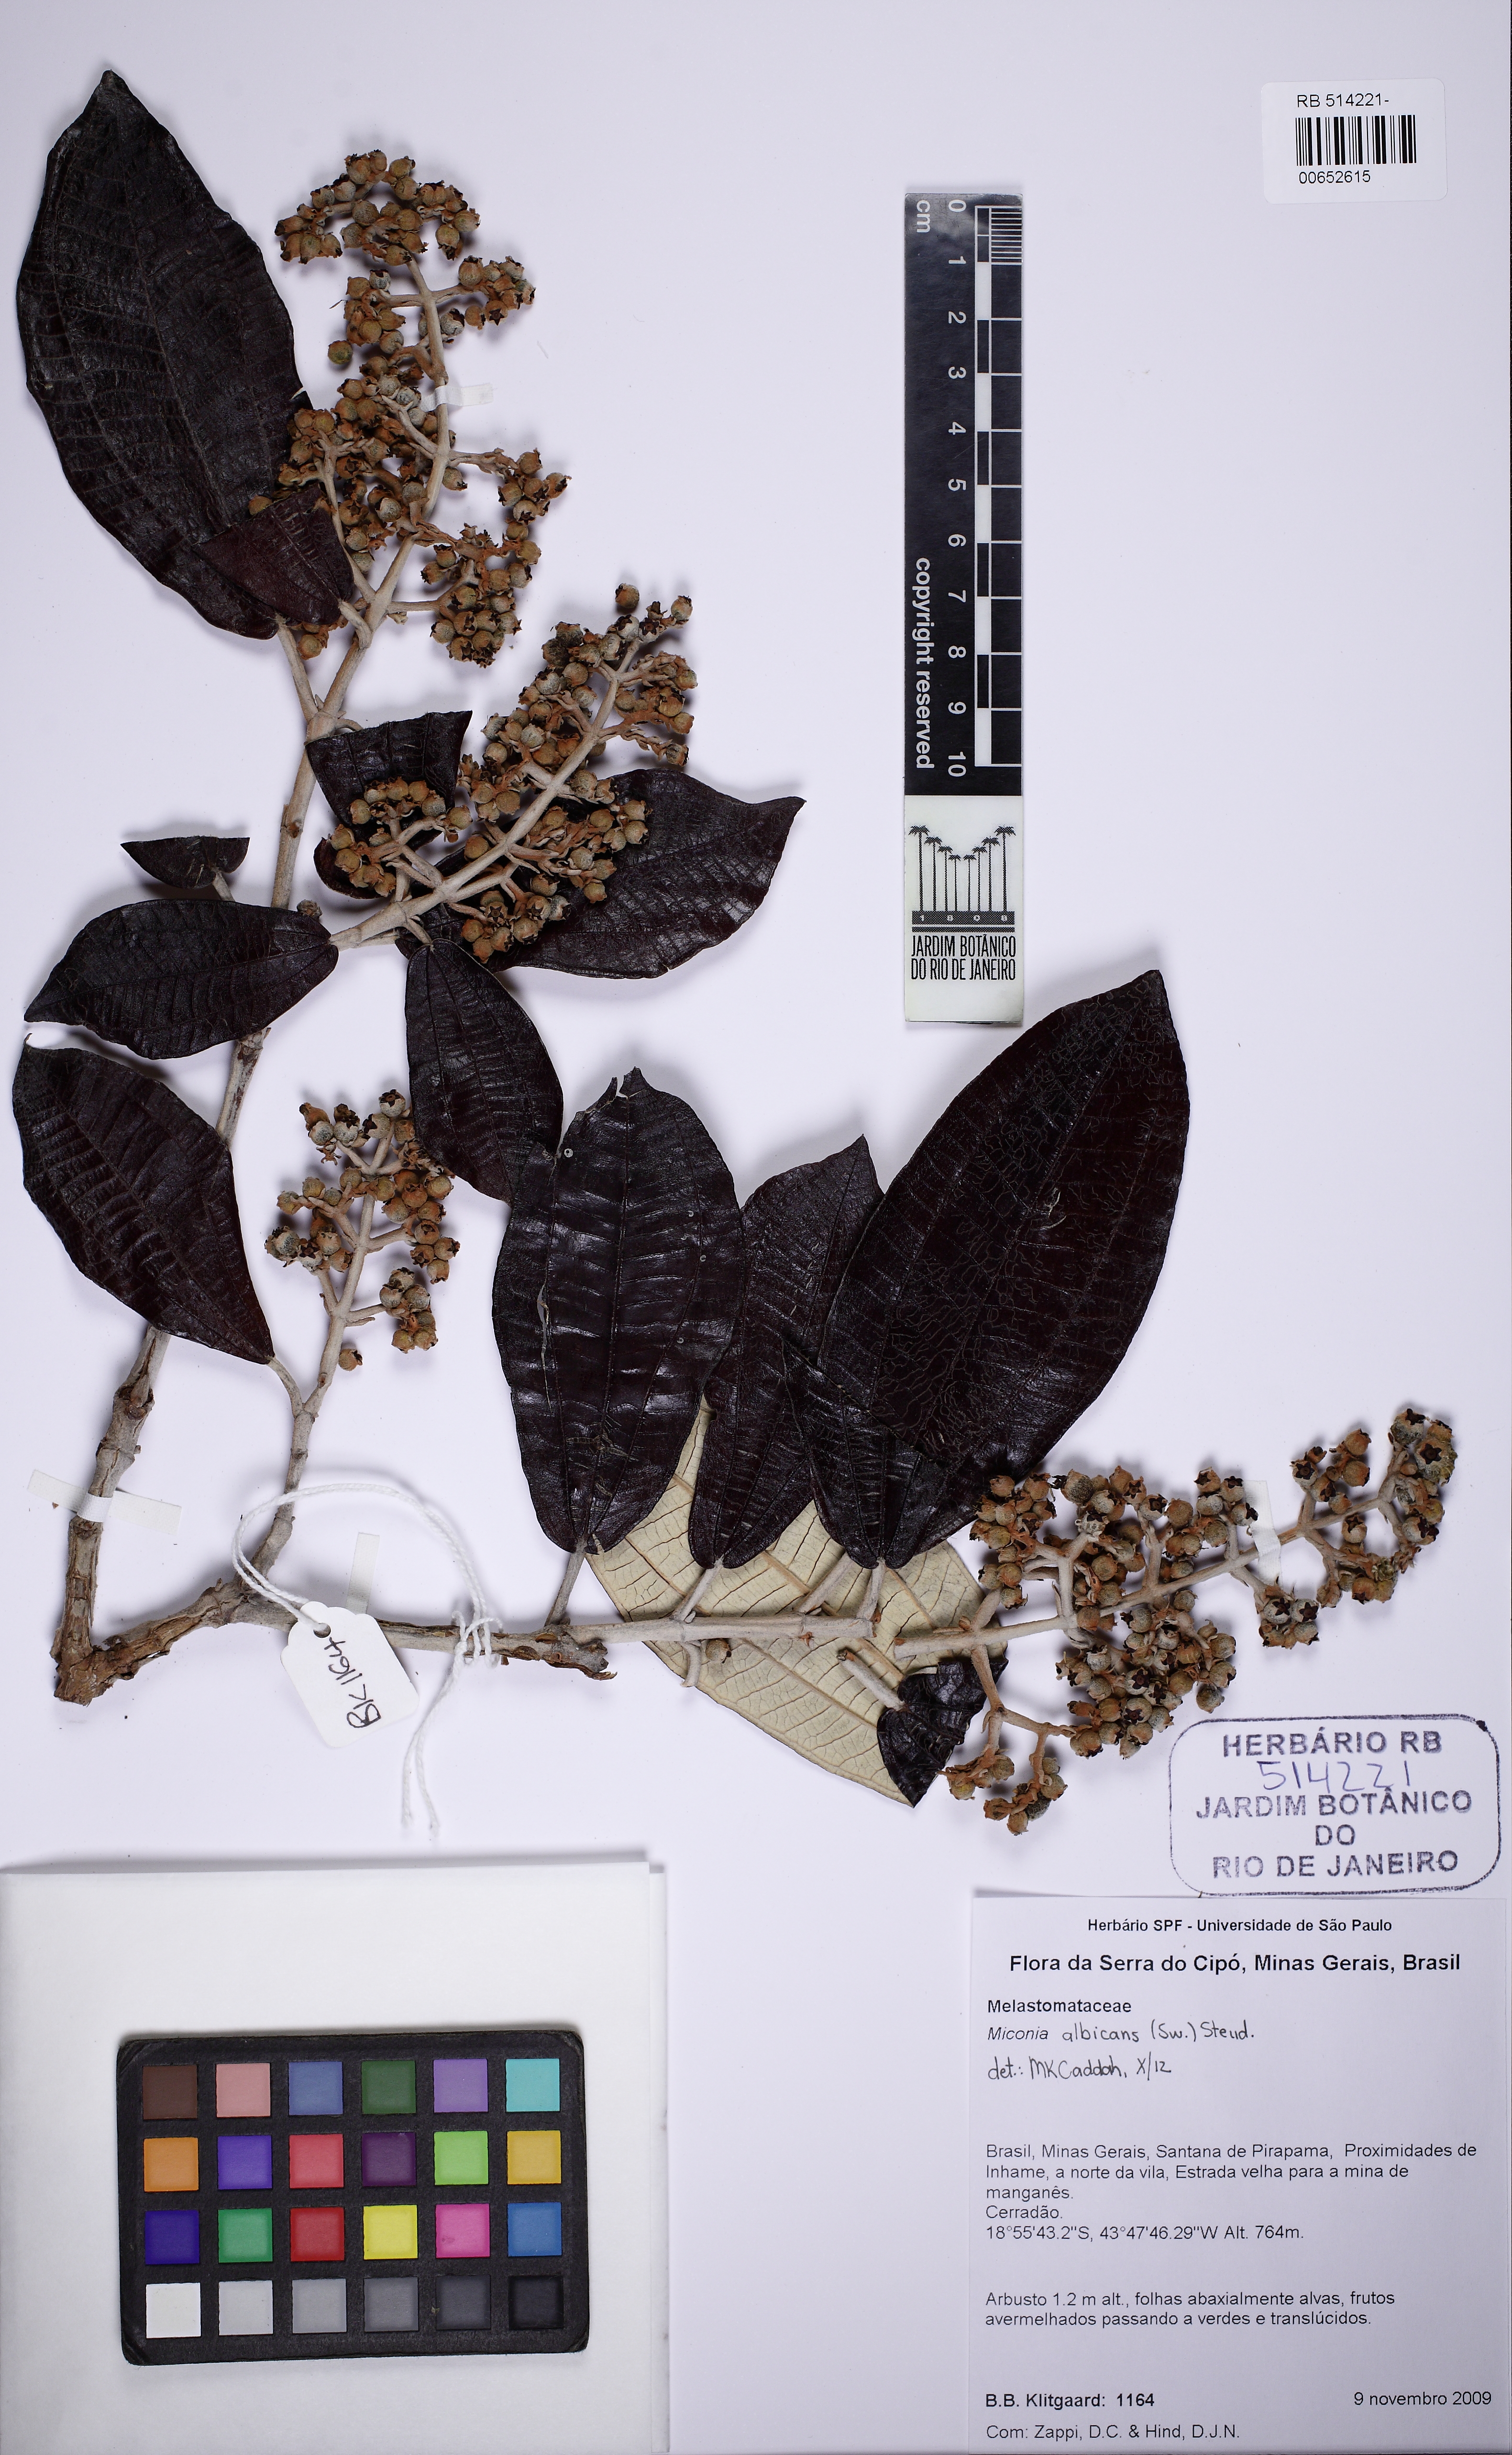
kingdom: Plantae
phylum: Tracheophyta
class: Magnoliopsida
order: Myrtales
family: Melastomataceae
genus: Miconia
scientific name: Miconia albicans
